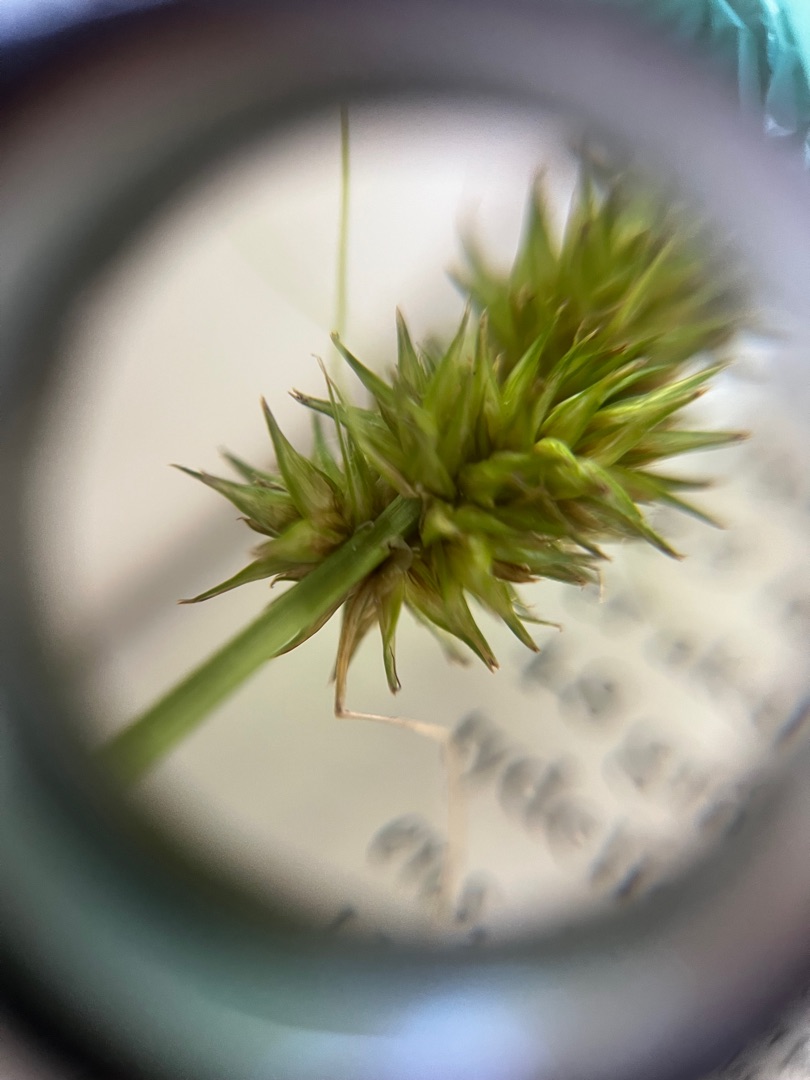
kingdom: Plantae
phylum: Tracheophyta
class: Liliopsida
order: Poales
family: Cyperaceae
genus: Carex
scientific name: Carex otrubae
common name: Sylt-star
